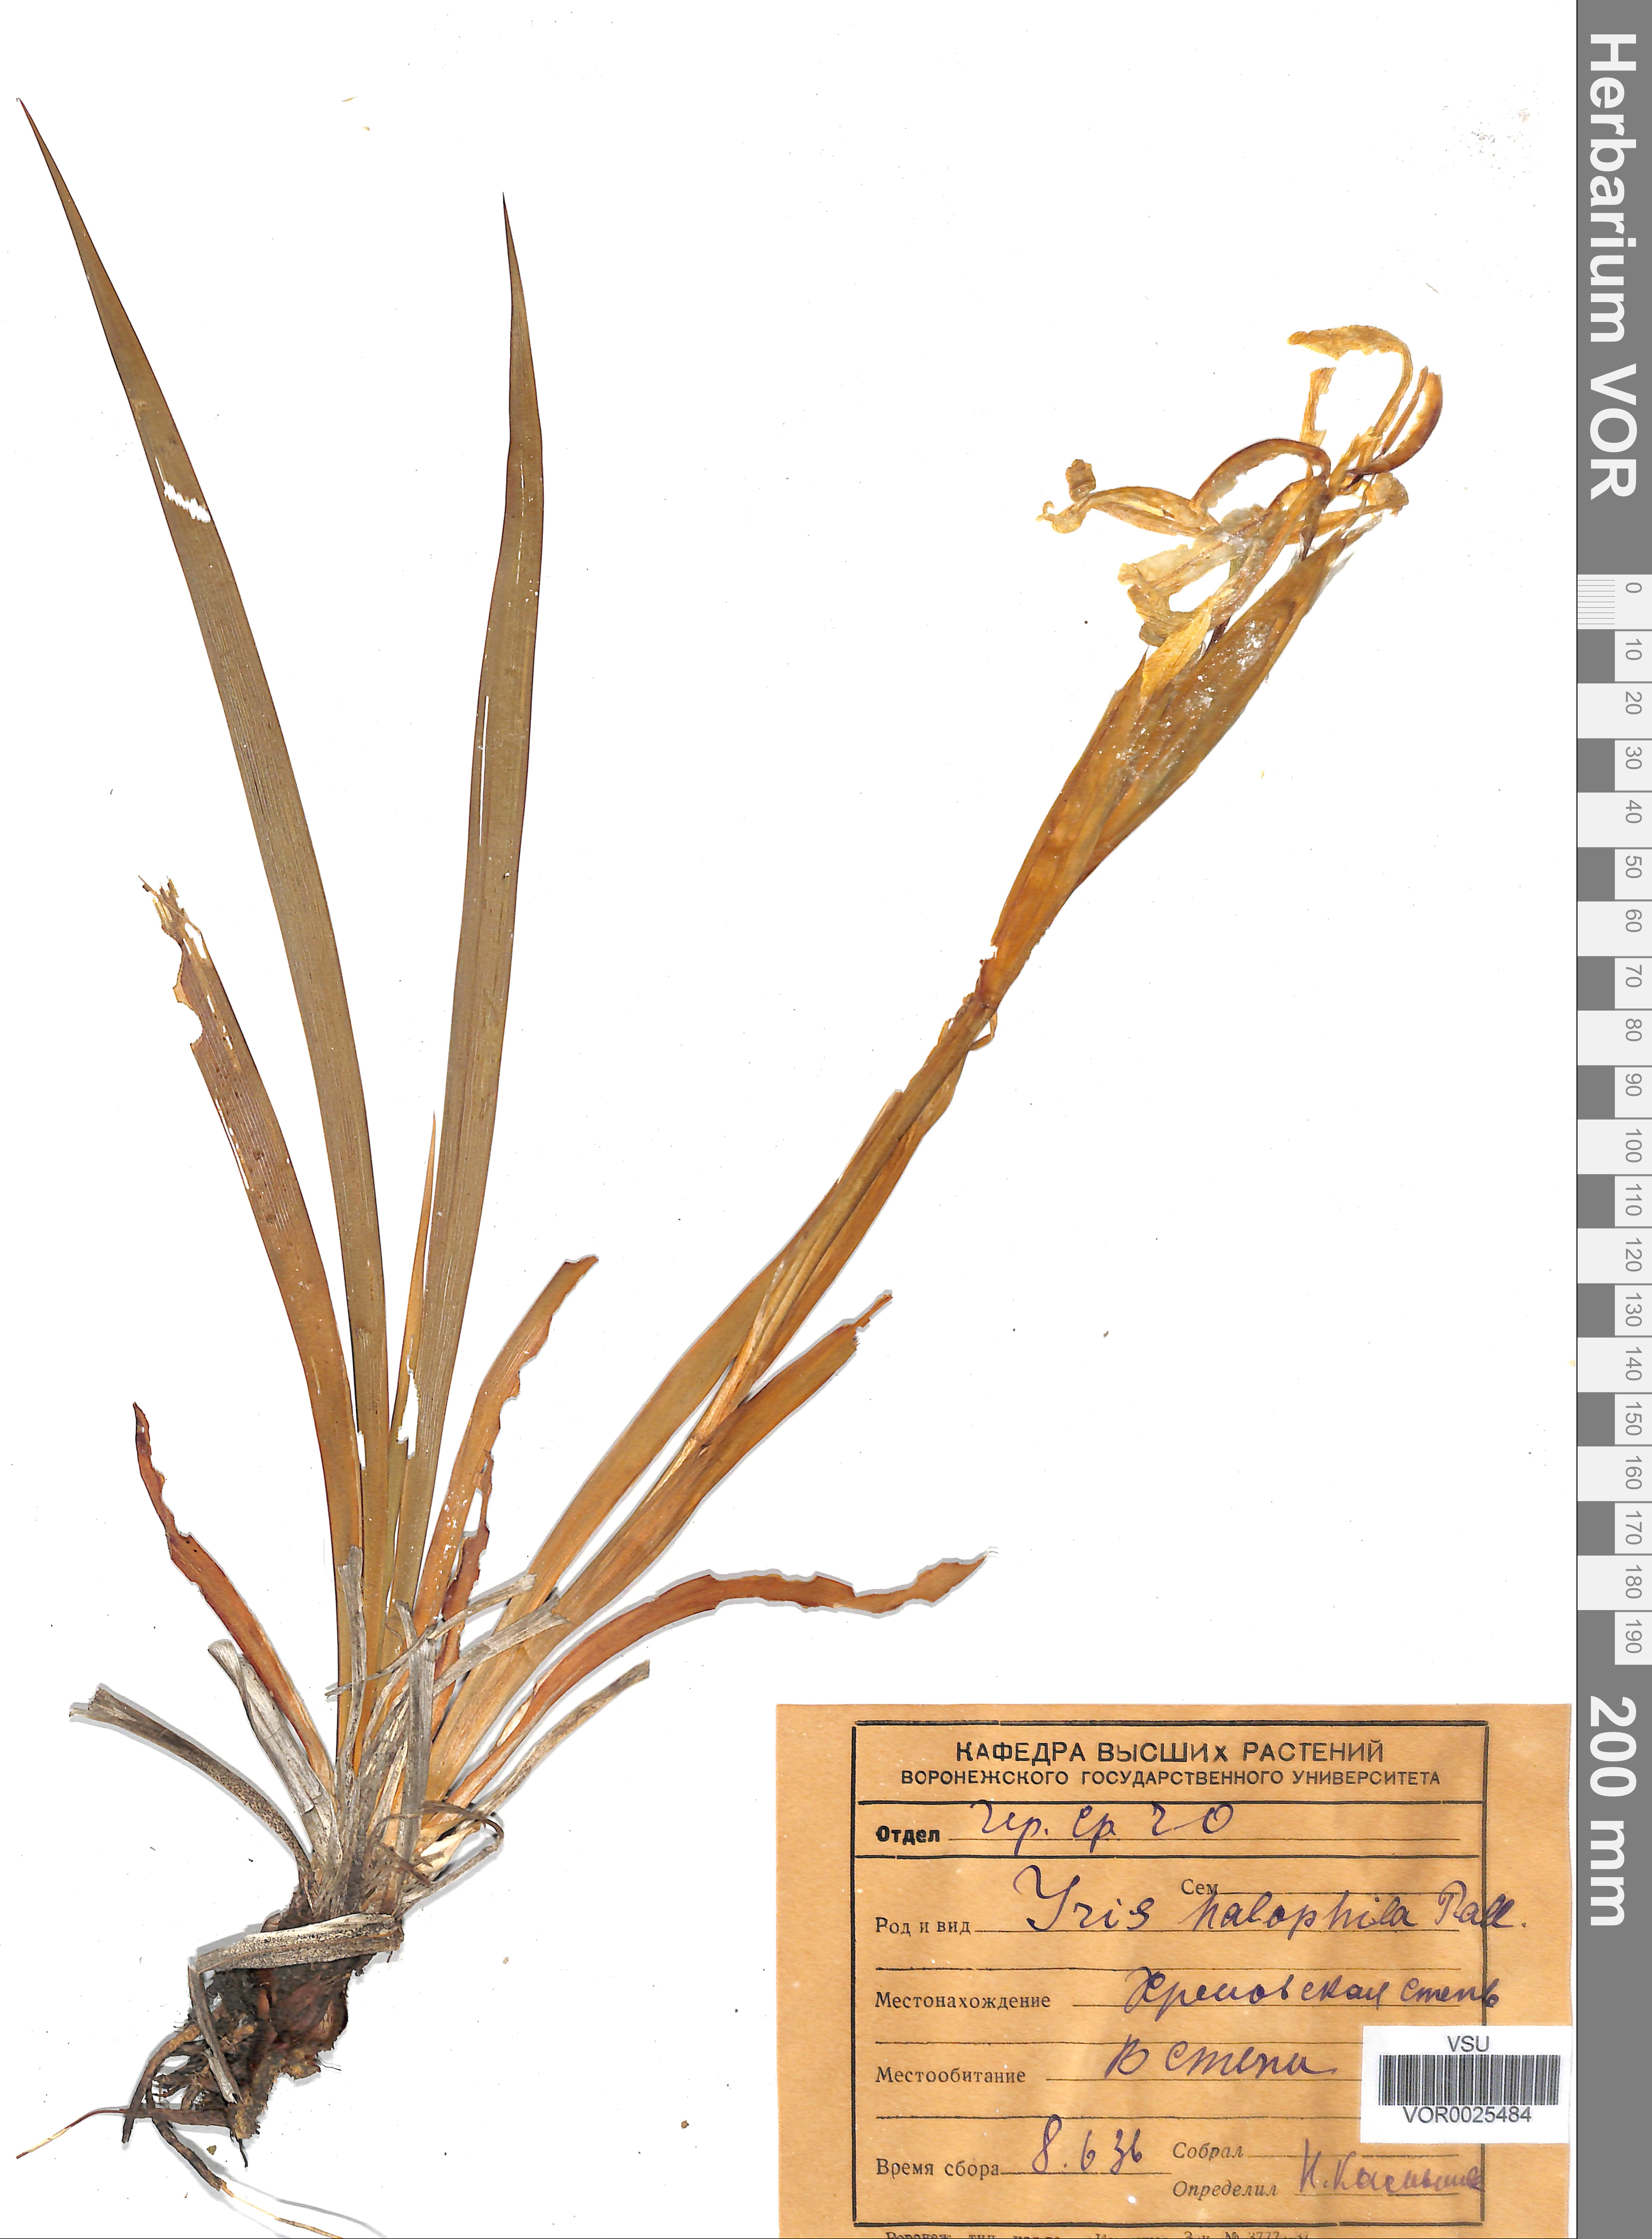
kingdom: Plantae
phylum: Tracheophyta
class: Liliopsida
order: Asparagales
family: Iridaceae
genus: Iris
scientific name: Iris halophila
